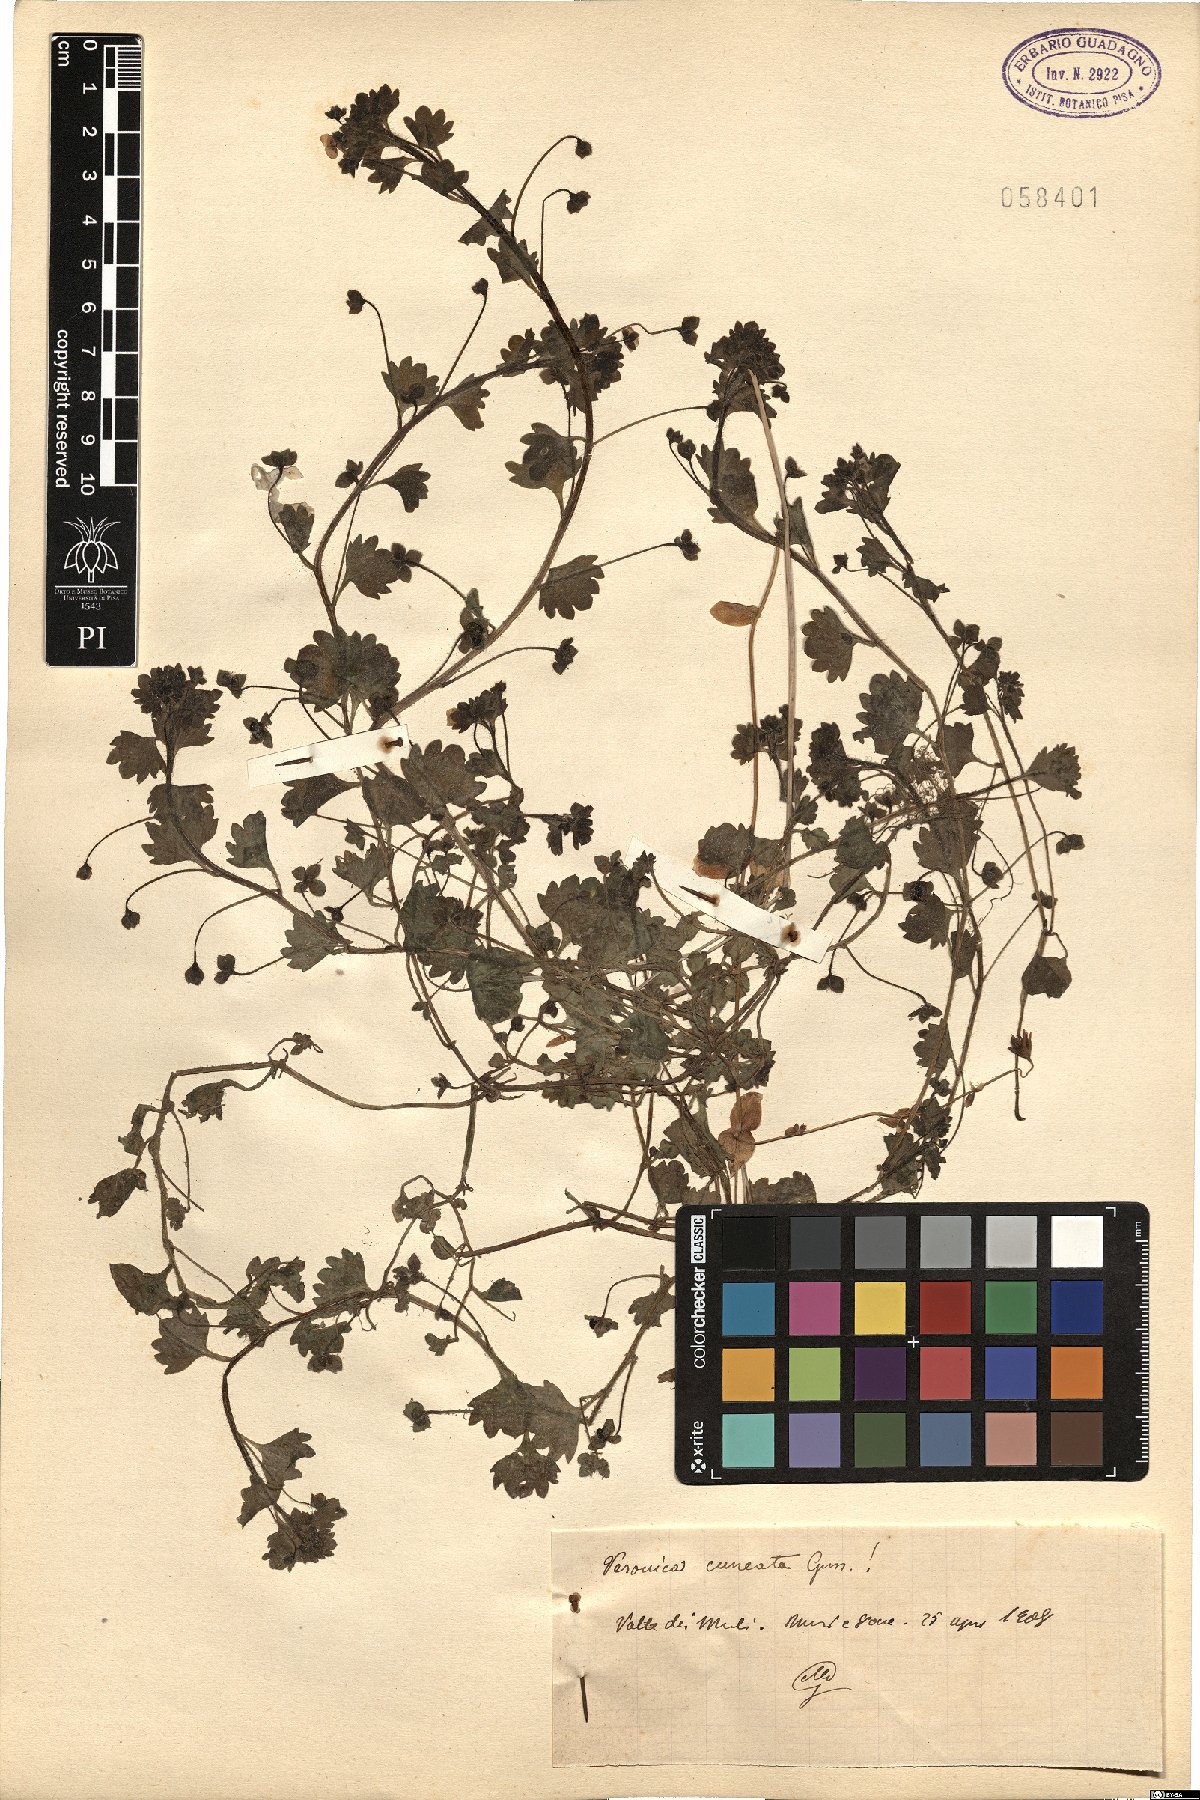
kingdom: Plantae
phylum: Tracheophyta
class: Magnoliopsida
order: Lamiales
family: Plantaginaceae
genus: Veronica
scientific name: Veronica cymbalaria
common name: Pale speedwell
